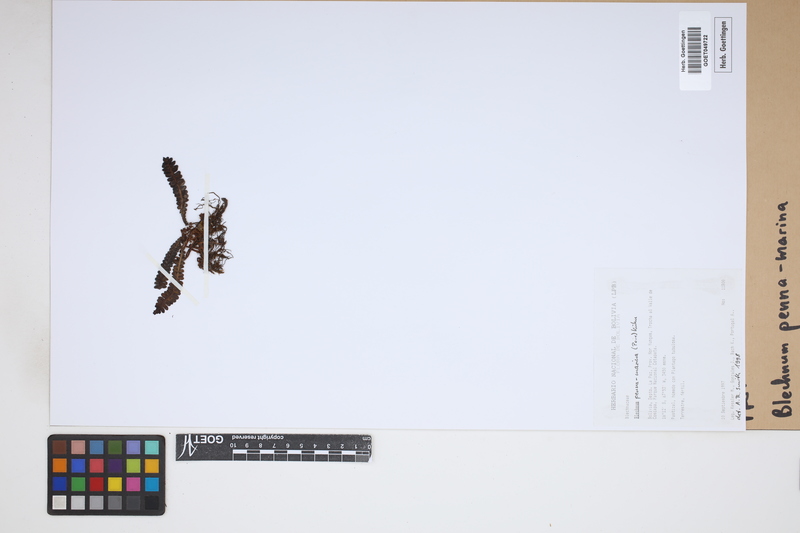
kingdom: Plantae
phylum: Tracheophyta
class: Polypodiopsida
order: Polypodiales
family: Blechnaceae
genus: Austroblechnum
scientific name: Austroblechnum penna-marina
